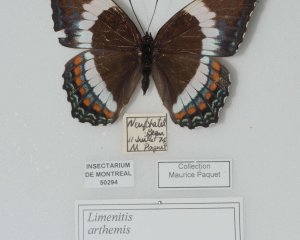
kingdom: Animalia
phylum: Arthropoda
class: Insecta
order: Lepidoptera
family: Nymphalidae
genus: Limenitis
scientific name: Limenitis astyanax
